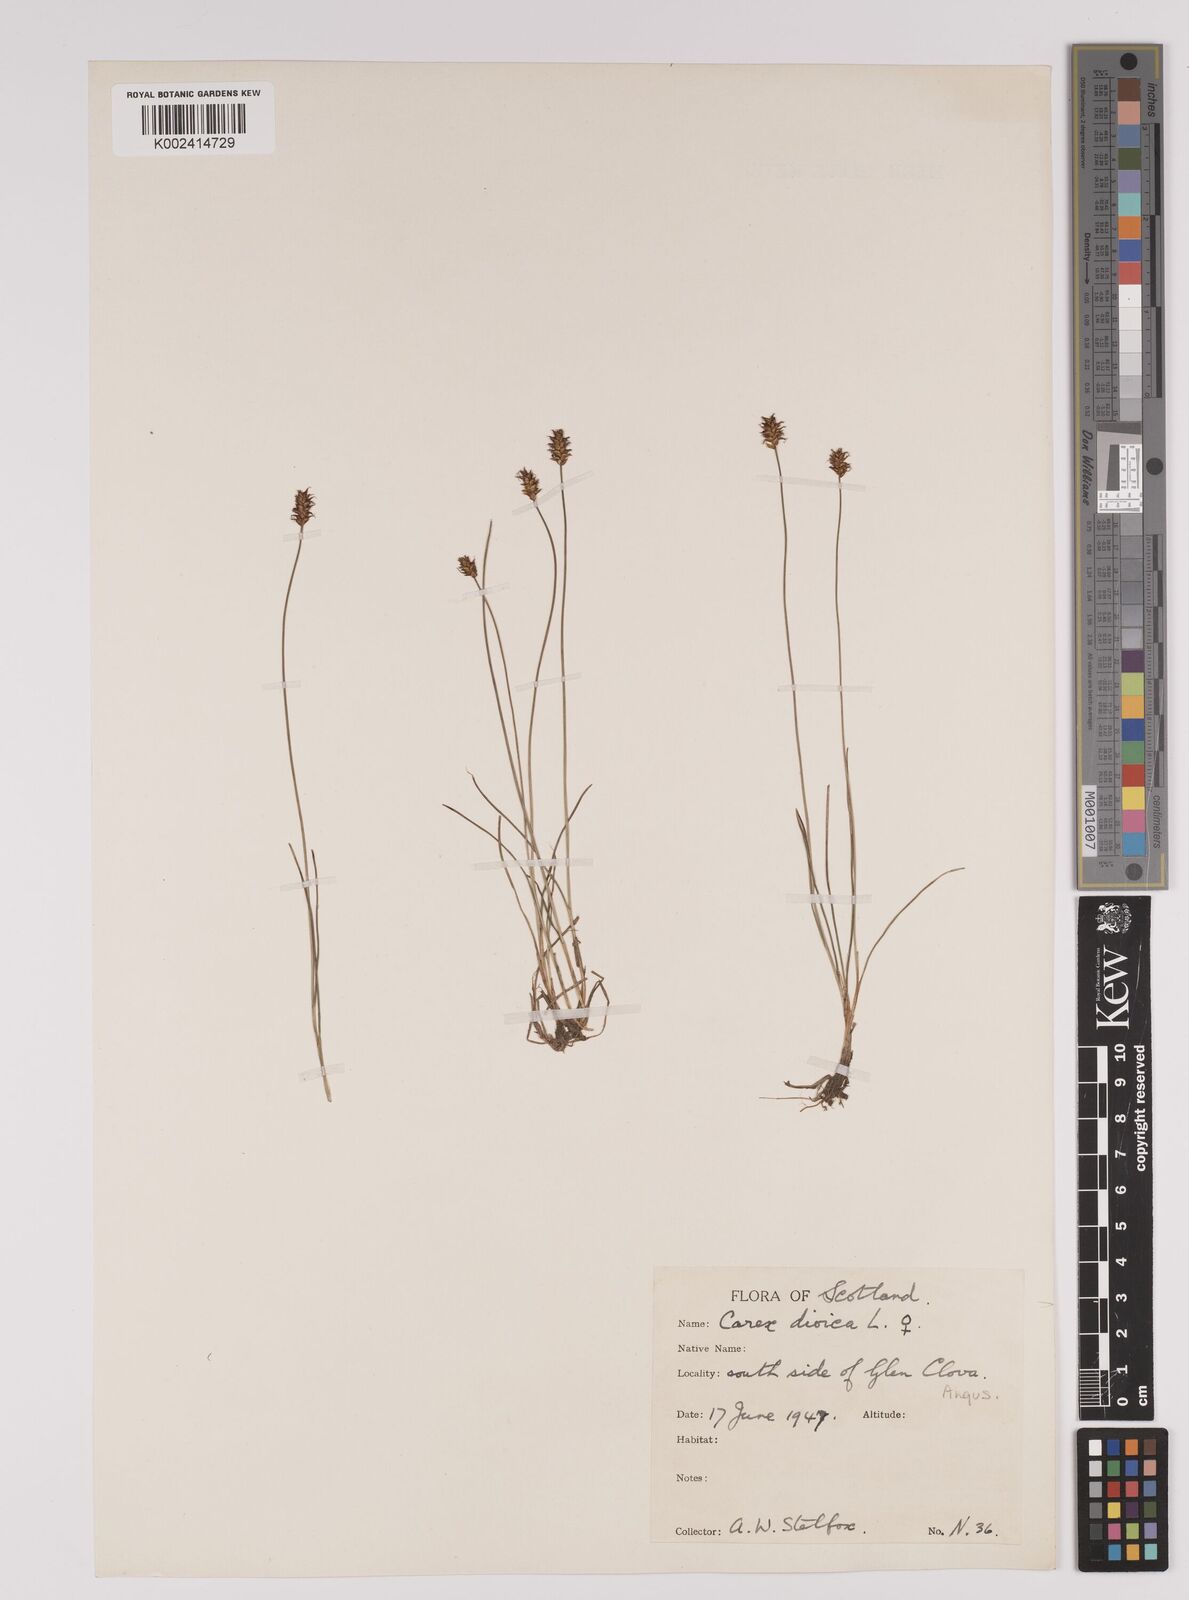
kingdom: Plantae
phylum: Tracheophyta
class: Liliopsida
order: Poales
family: Cyperaceae
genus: Carex
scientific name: Carex dioica
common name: Dioecious sedge
